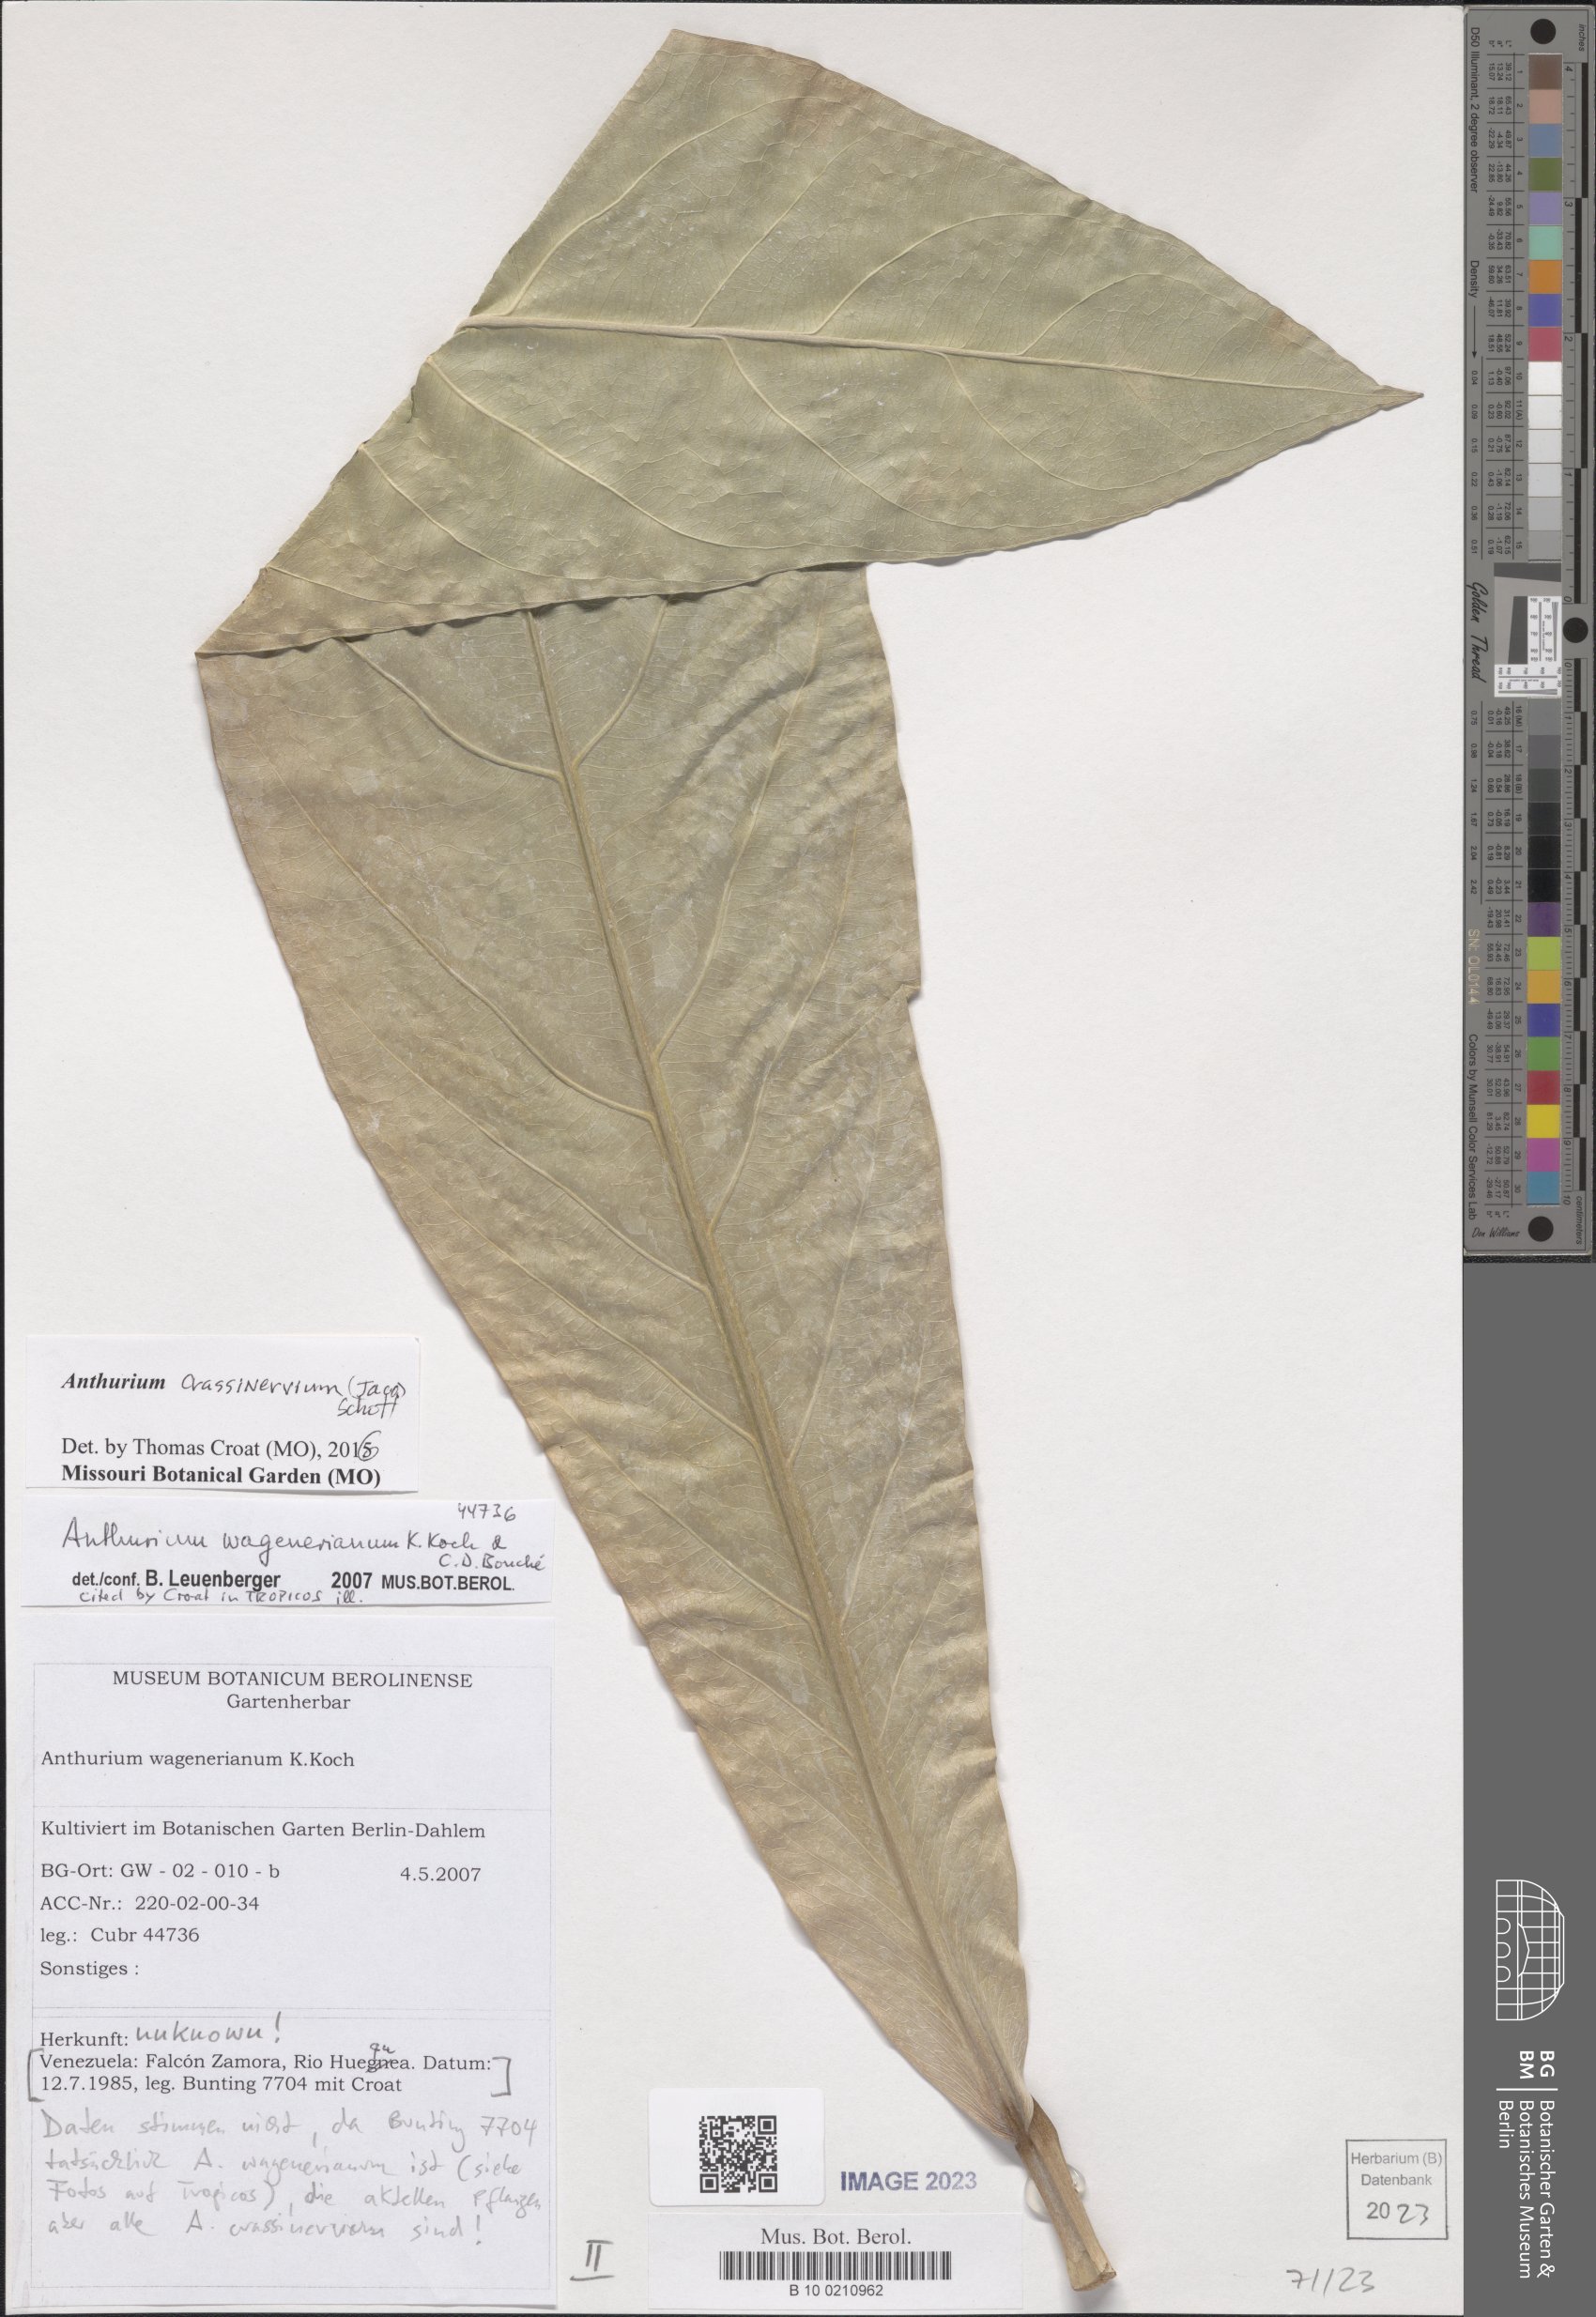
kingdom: Plantae
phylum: Tracheophyta
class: Liliopsida
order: Alismatales
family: Araceae
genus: Anthurium
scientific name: Anthurium crassinervium
